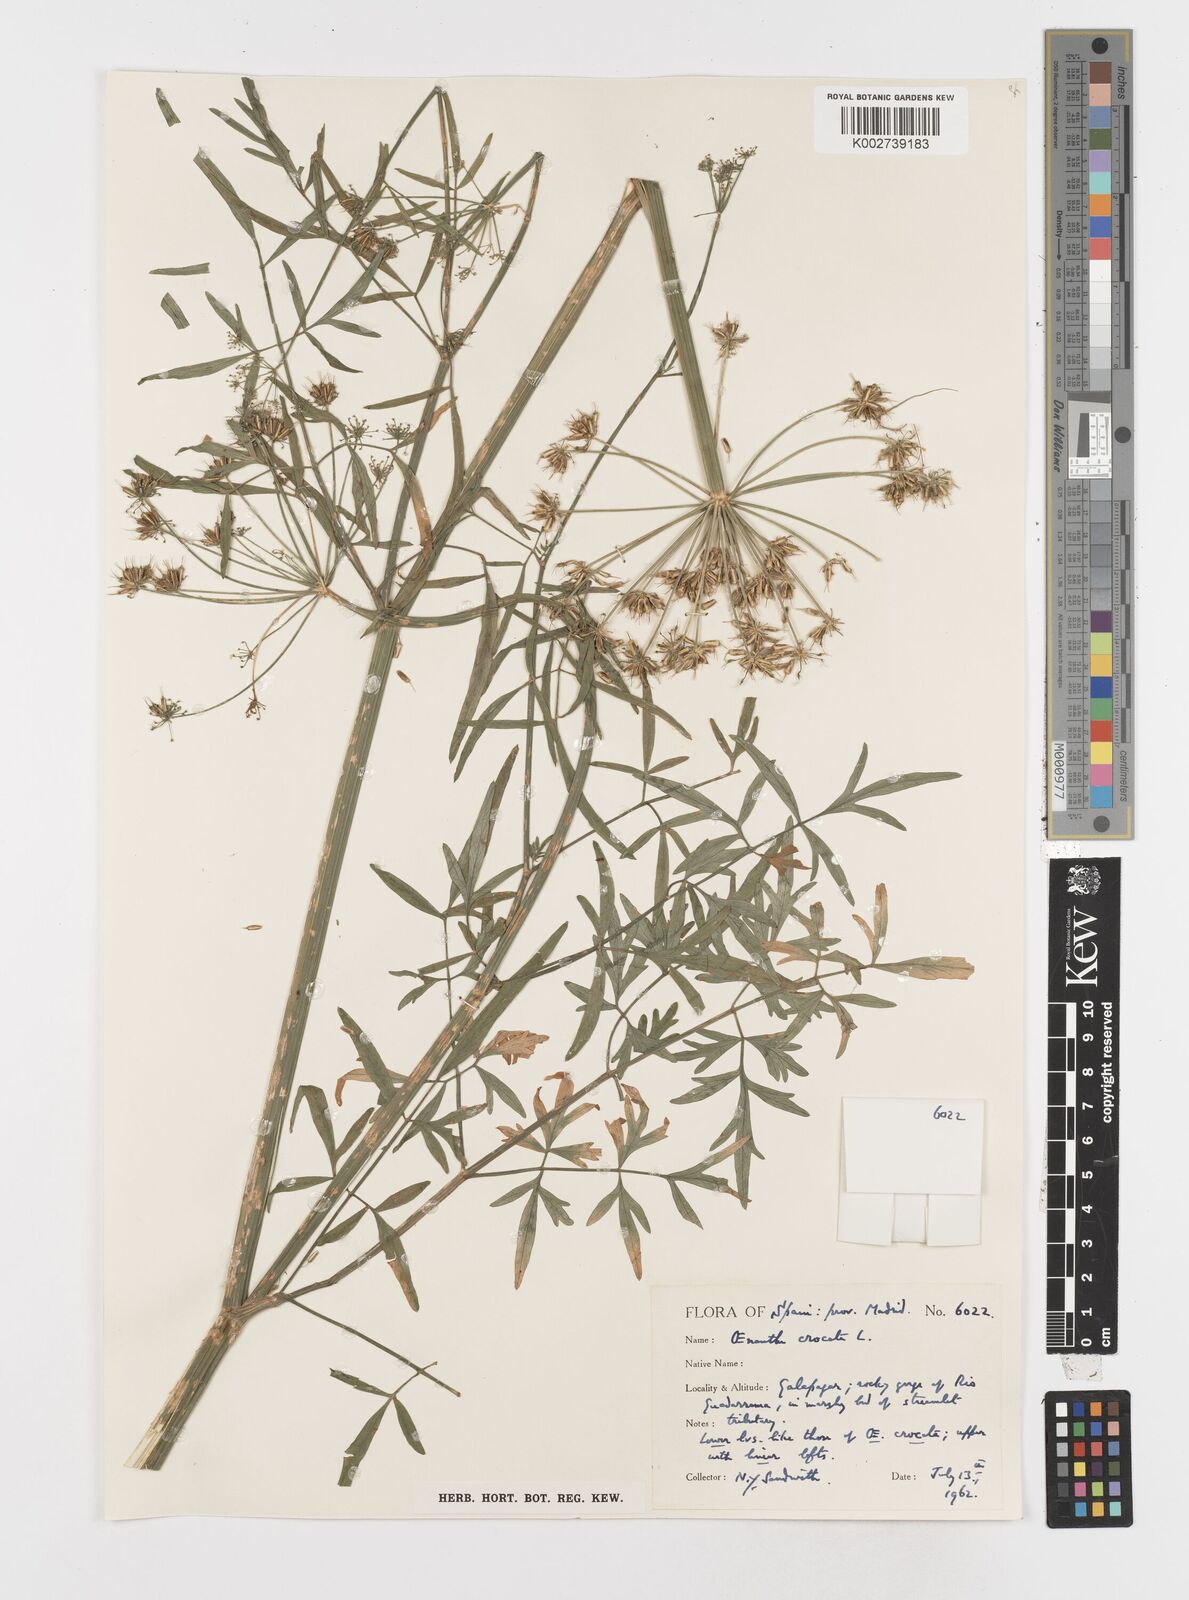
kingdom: Plantae
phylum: Tracheophyta
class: Magnoliopsida
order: Apiales
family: Apiaceae
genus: Oenanthe
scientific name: Oenanthe crocata
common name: Hemlock water-dropwort
